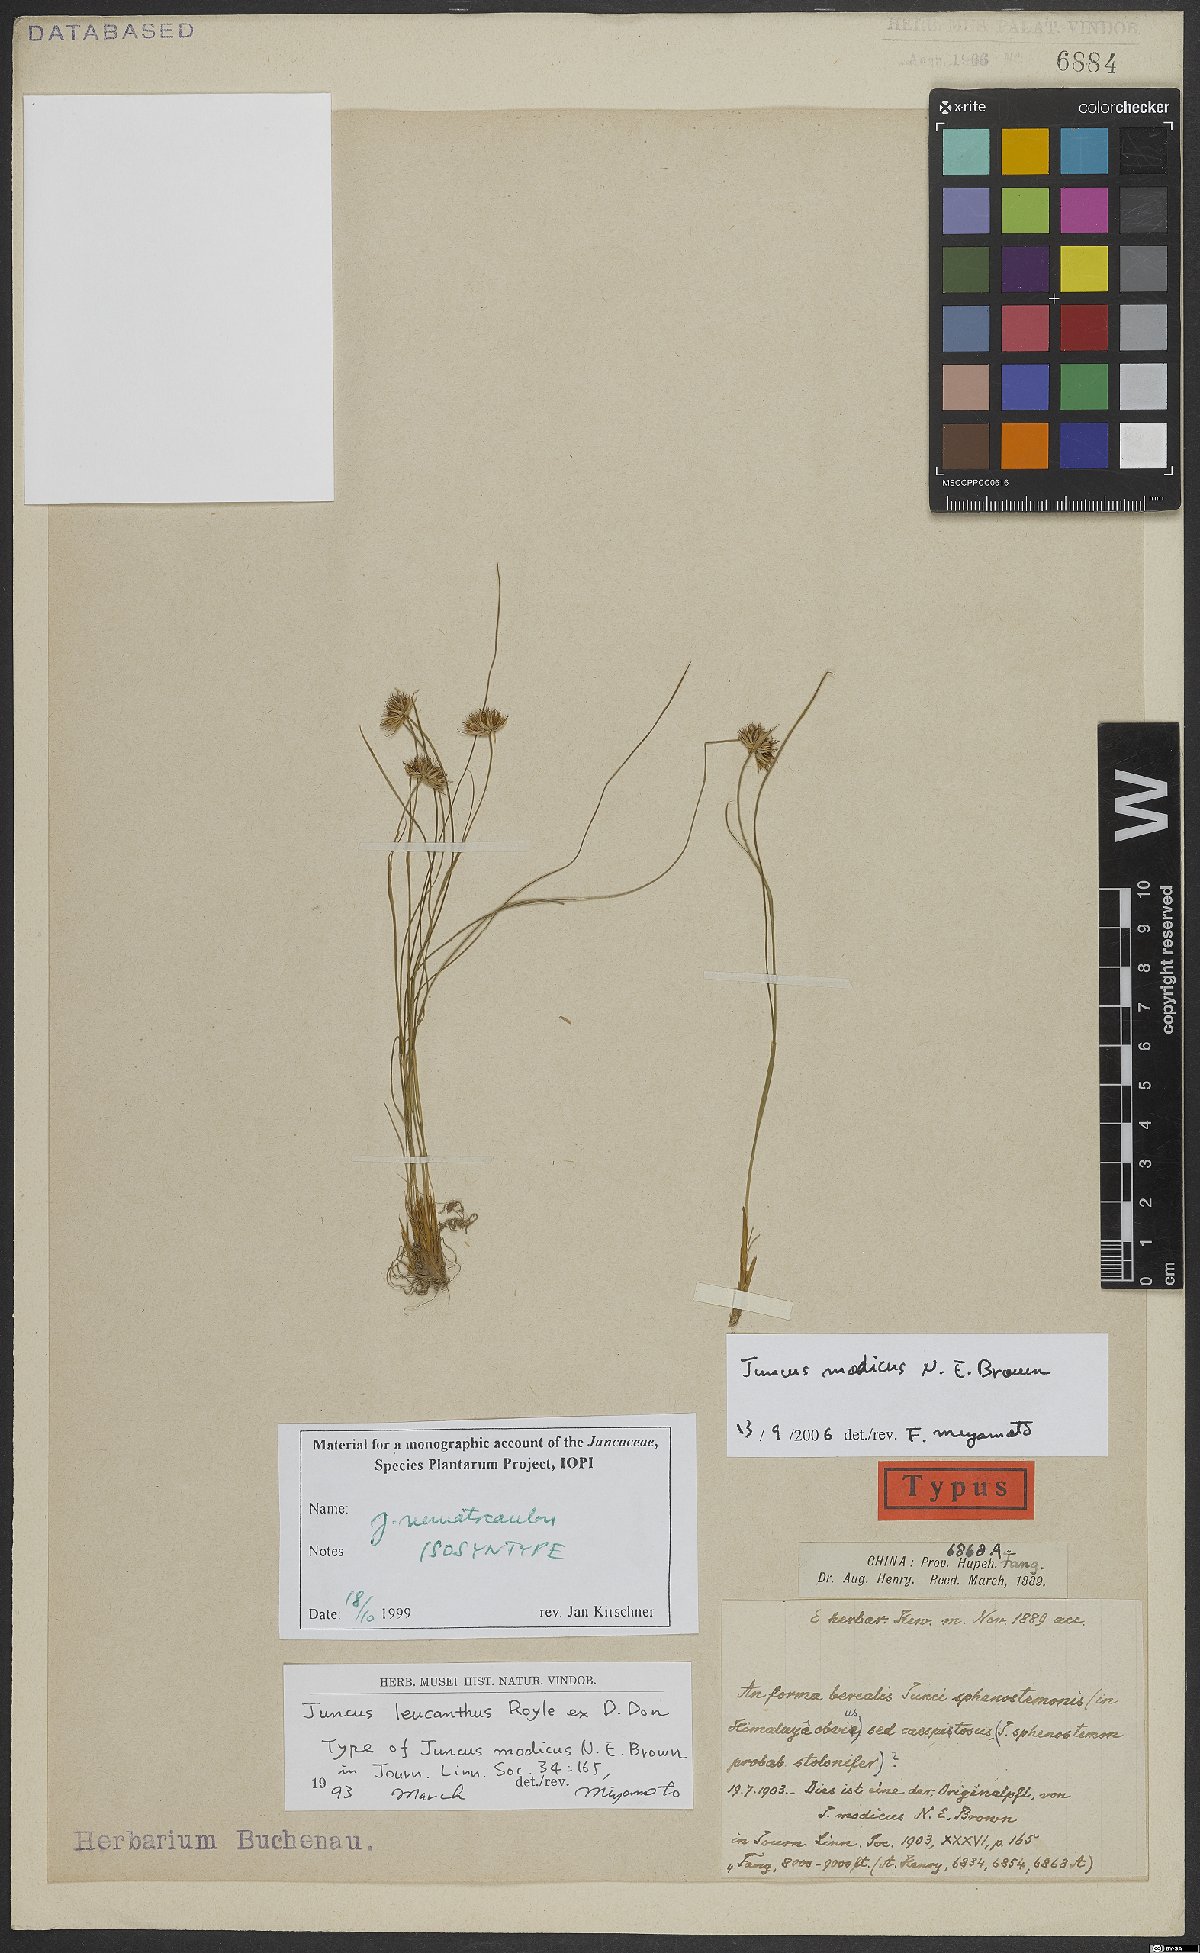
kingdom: Plantae
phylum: Tracheophyta
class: Liliopsida
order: Poales
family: Juncaceae
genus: Juncus
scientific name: Juncus modicus
